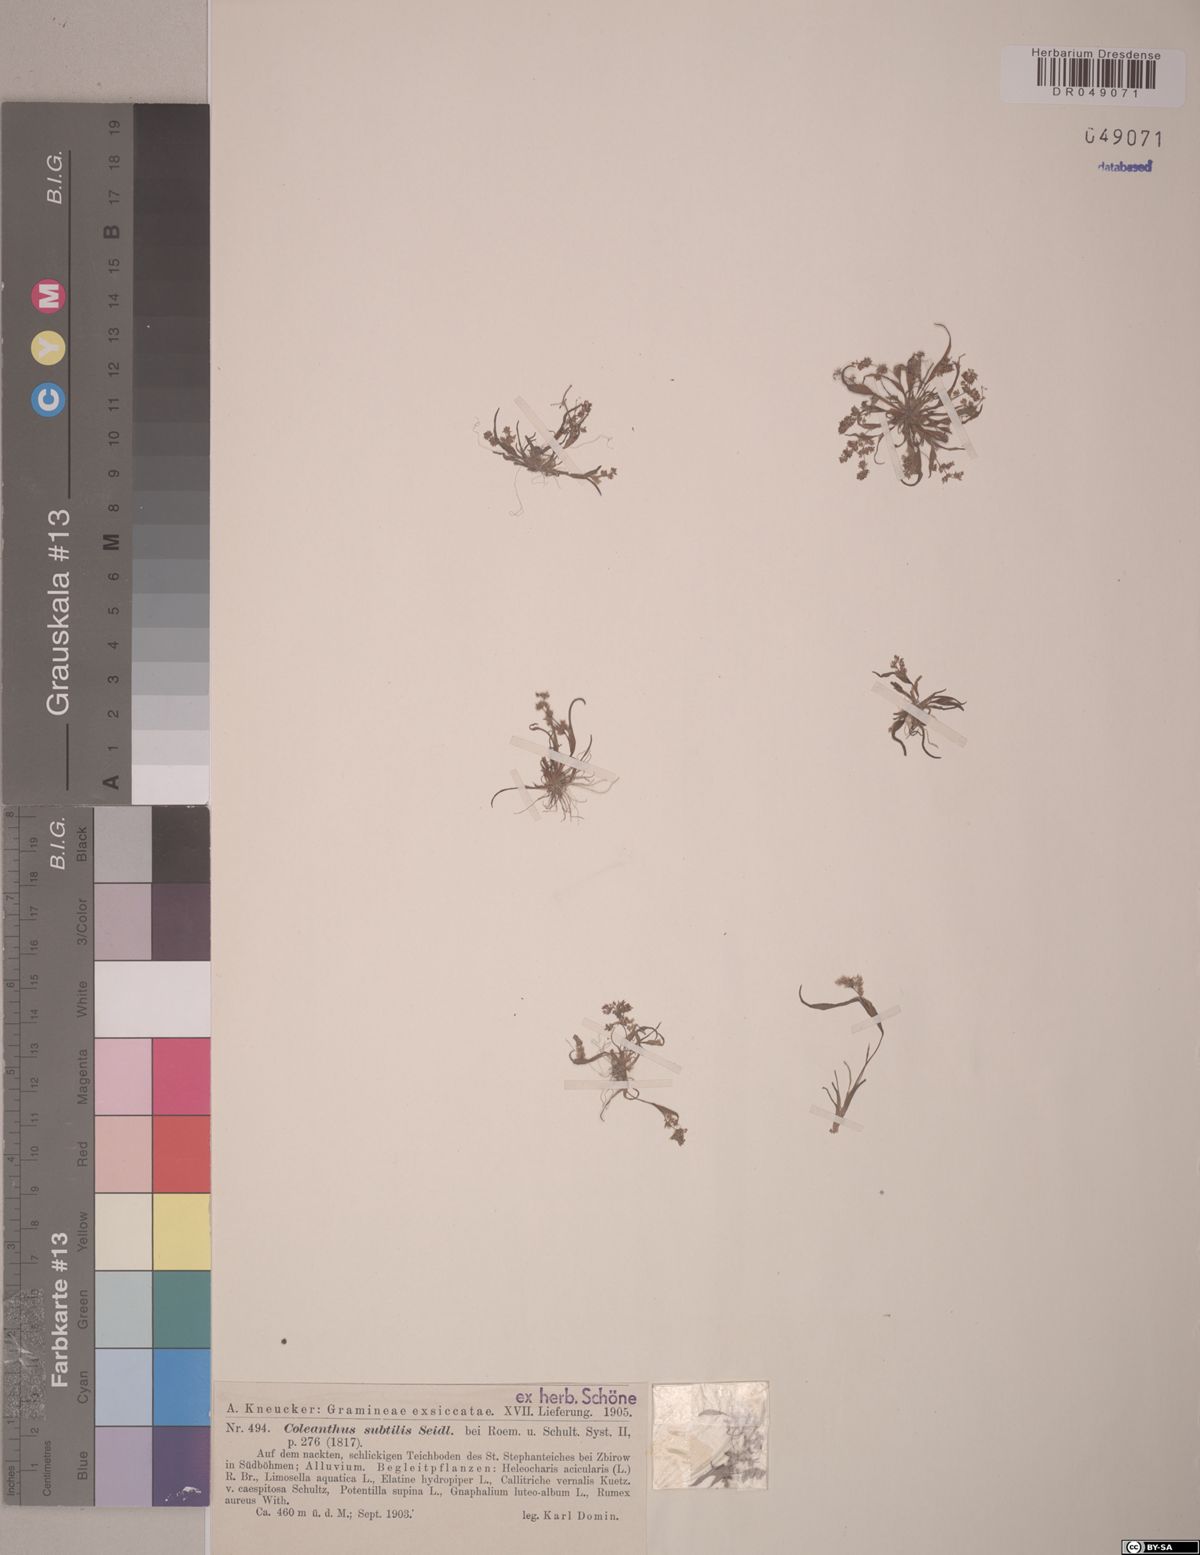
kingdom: Plantae
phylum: Tracheophyta
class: Liliopsida
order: Poales
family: Poaceae
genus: Coleanthus
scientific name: Coleanthus subtilis
